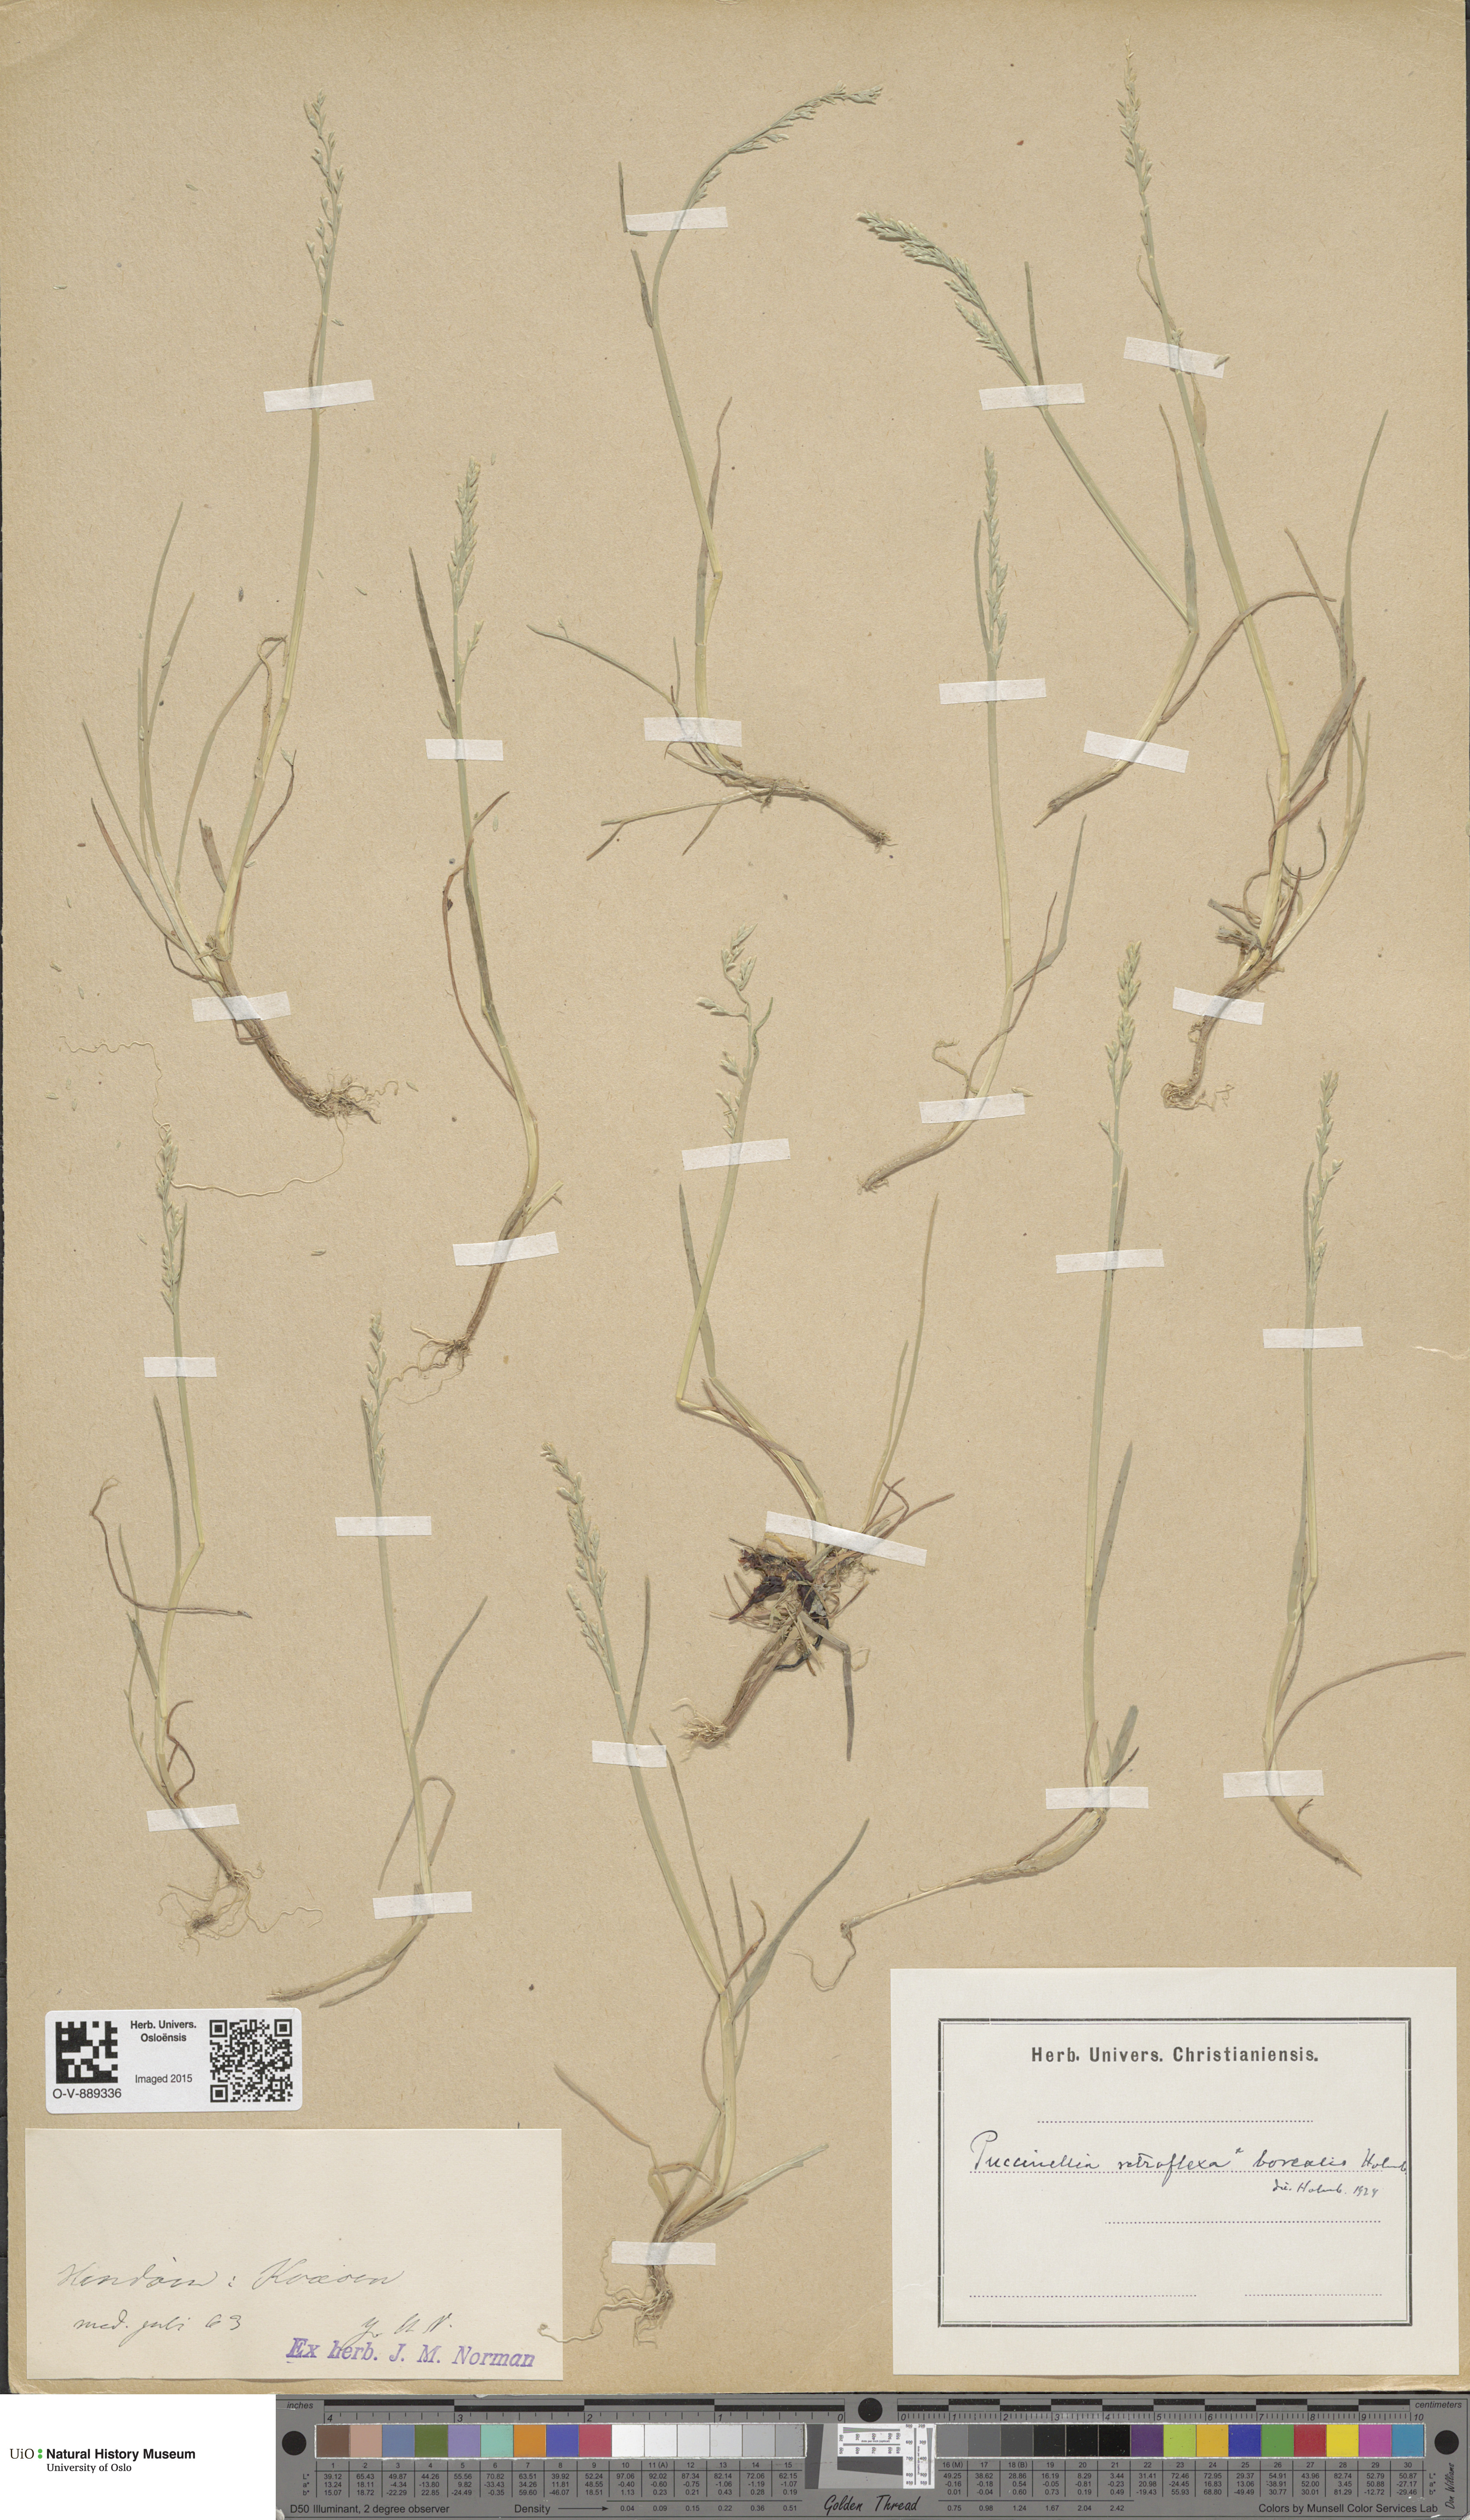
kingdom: Plantae
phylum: Tracheophyta
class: Liliopsida
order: Poales
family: Poaceae
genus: Puccinellia
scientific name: Puccinellia distans
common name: Weeping alkaligrass
